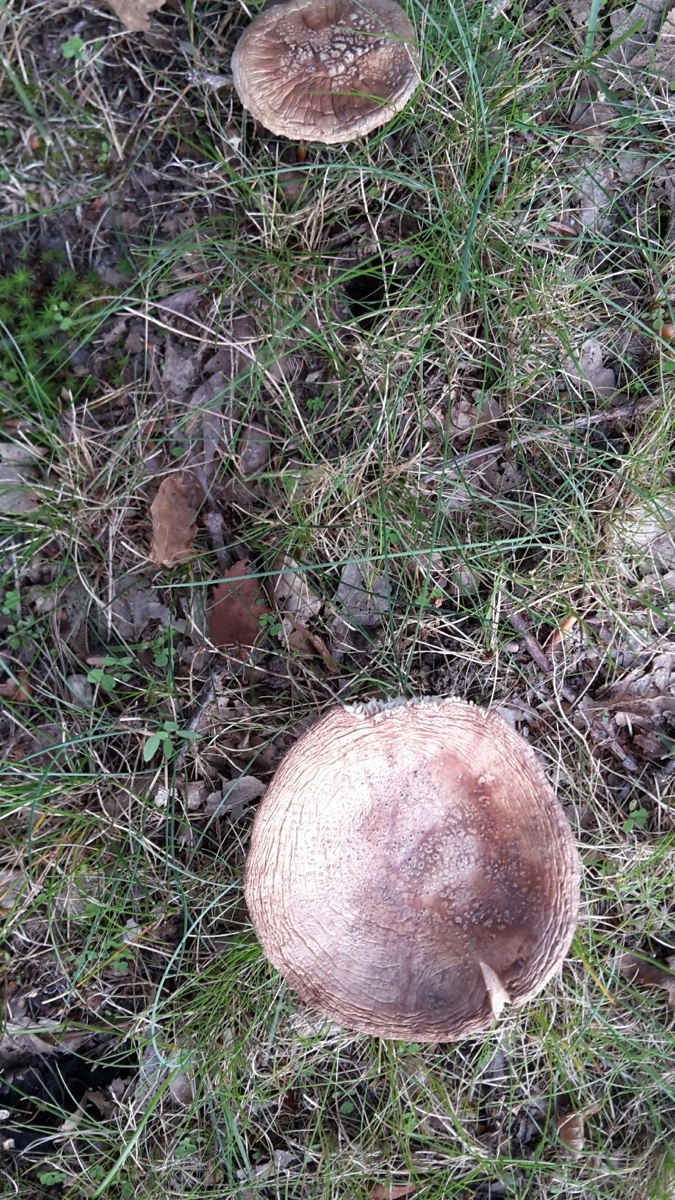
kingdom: Fungi
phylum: Basidiomycota
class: Agaricomycetes
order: Agaricales
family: Amanitaceae
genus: Amanita
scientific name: Amanita rubescens
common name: rødmende fluesvamp
